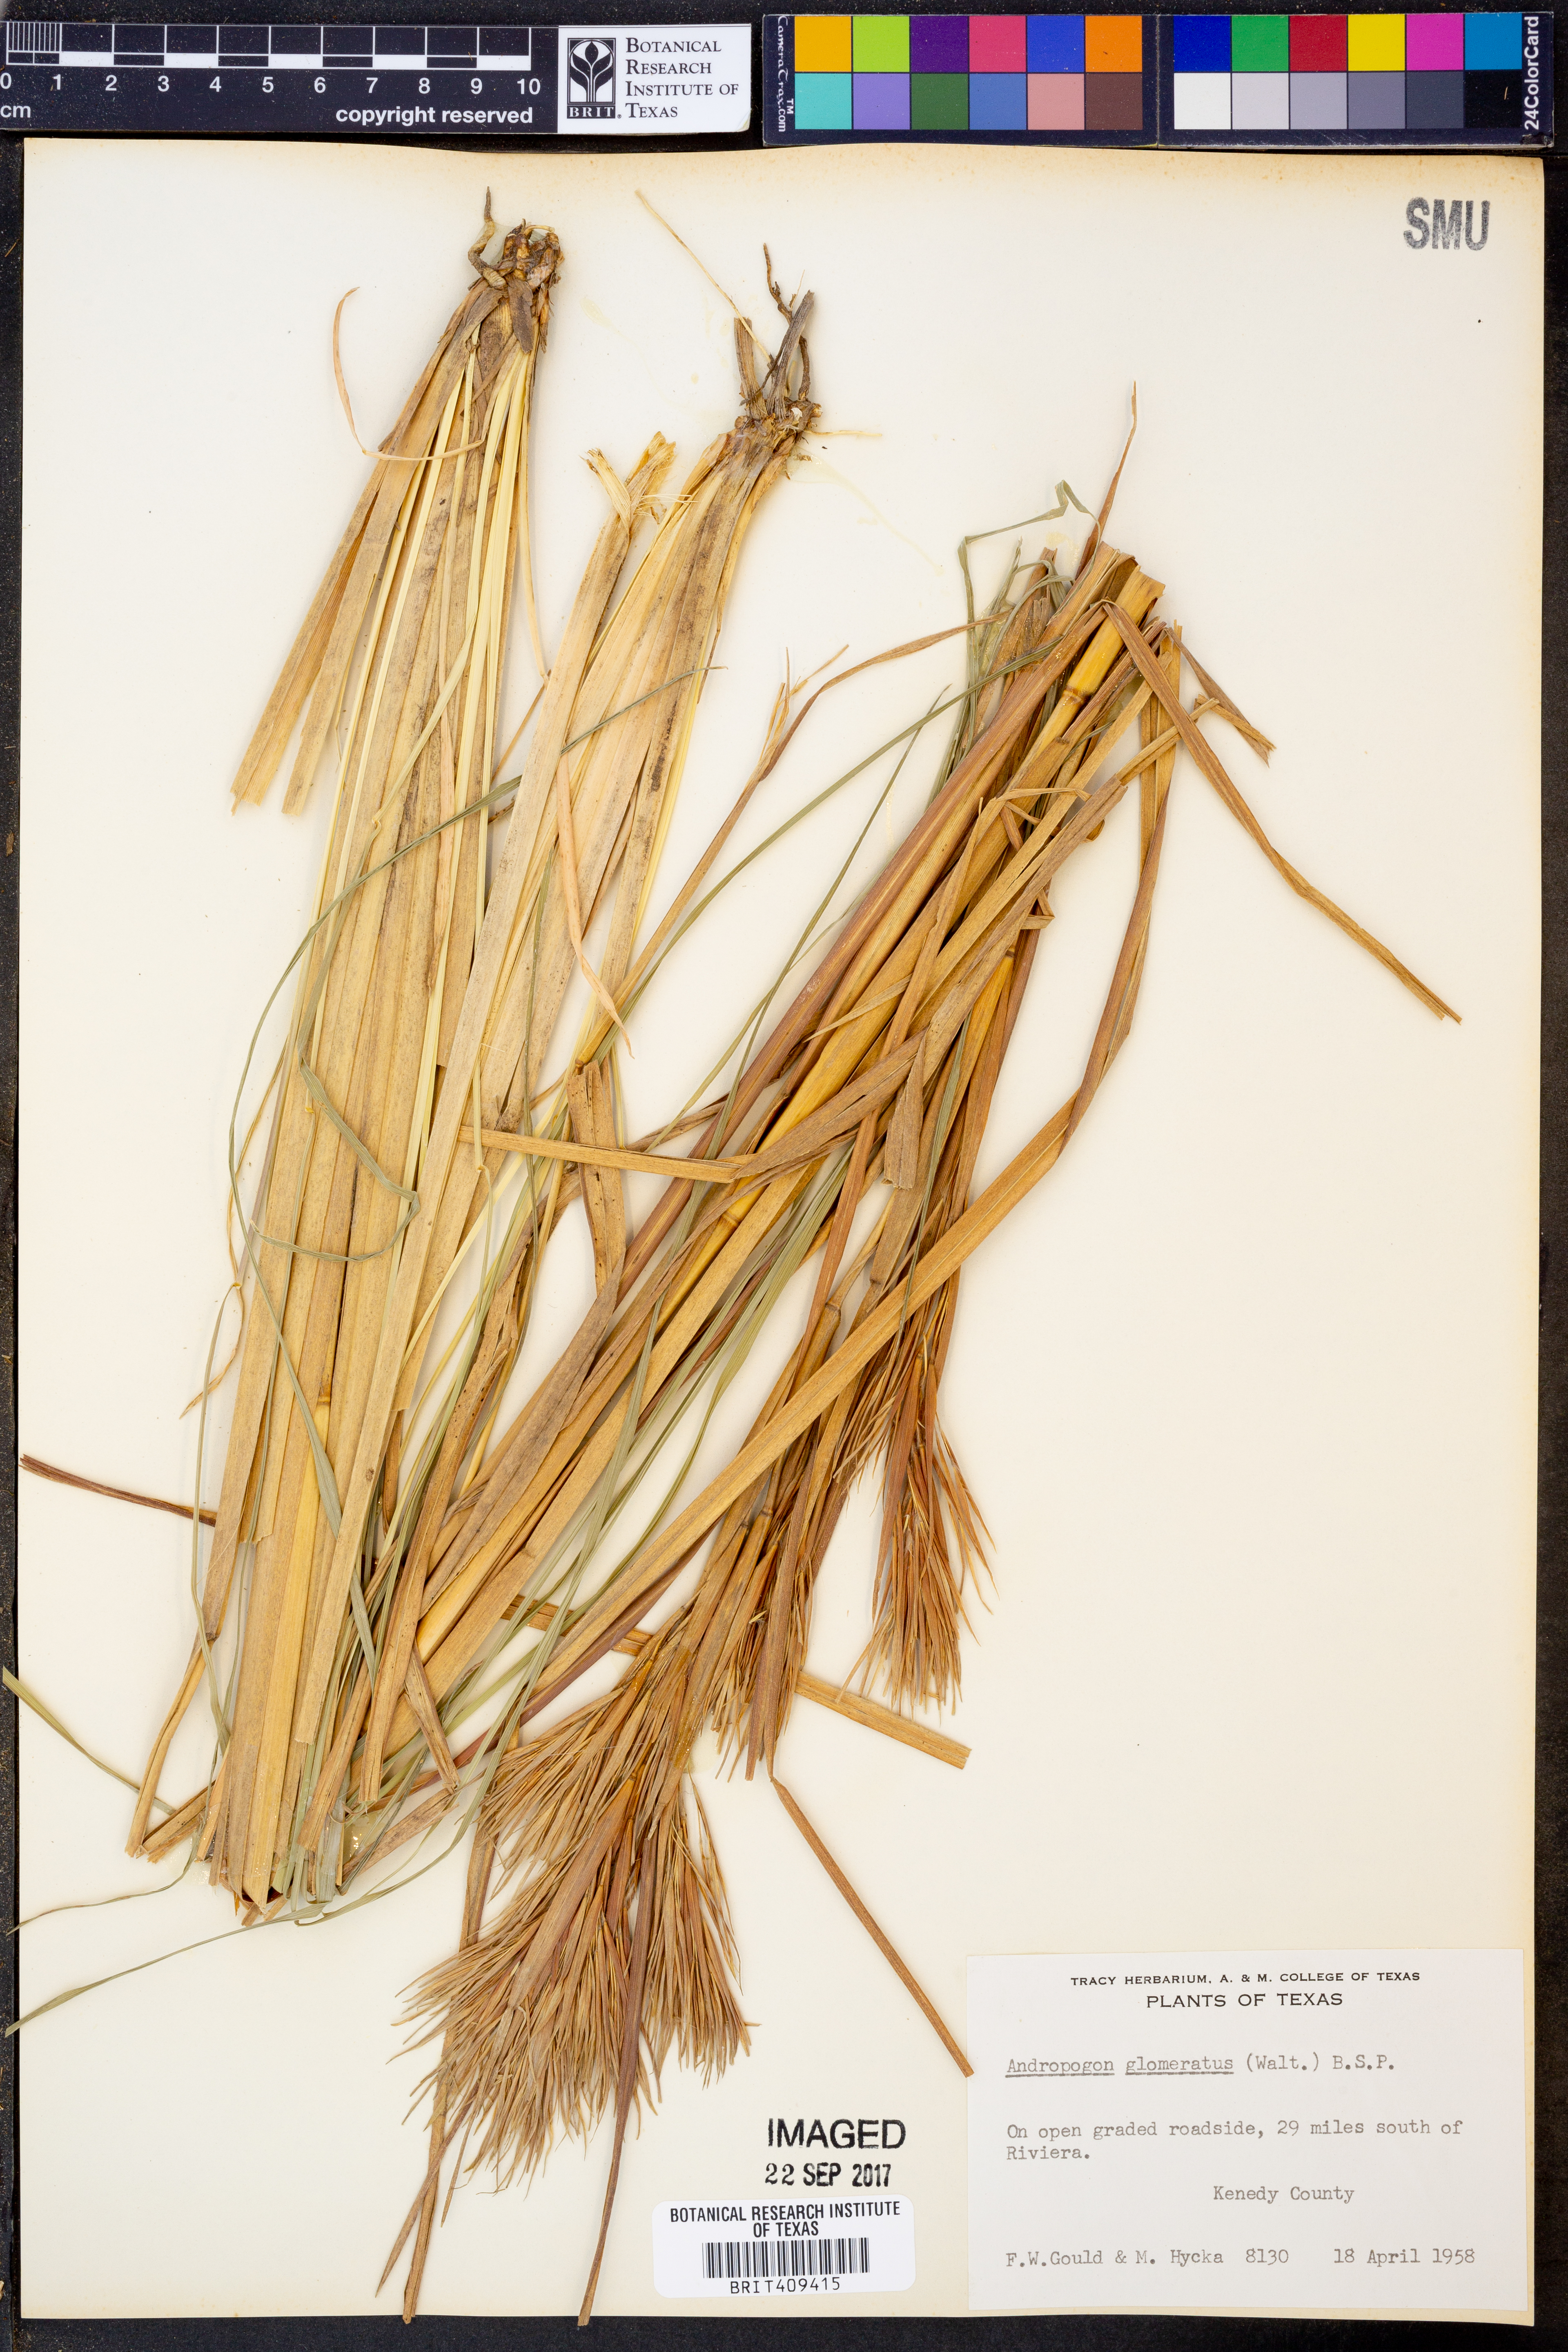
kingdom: Plantae
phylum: Tracheophyta
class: Liliopsida
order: Poales
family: Poaceae
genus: Andropogon
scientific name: Andropogon glomeratus
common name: Bushy beard grass
